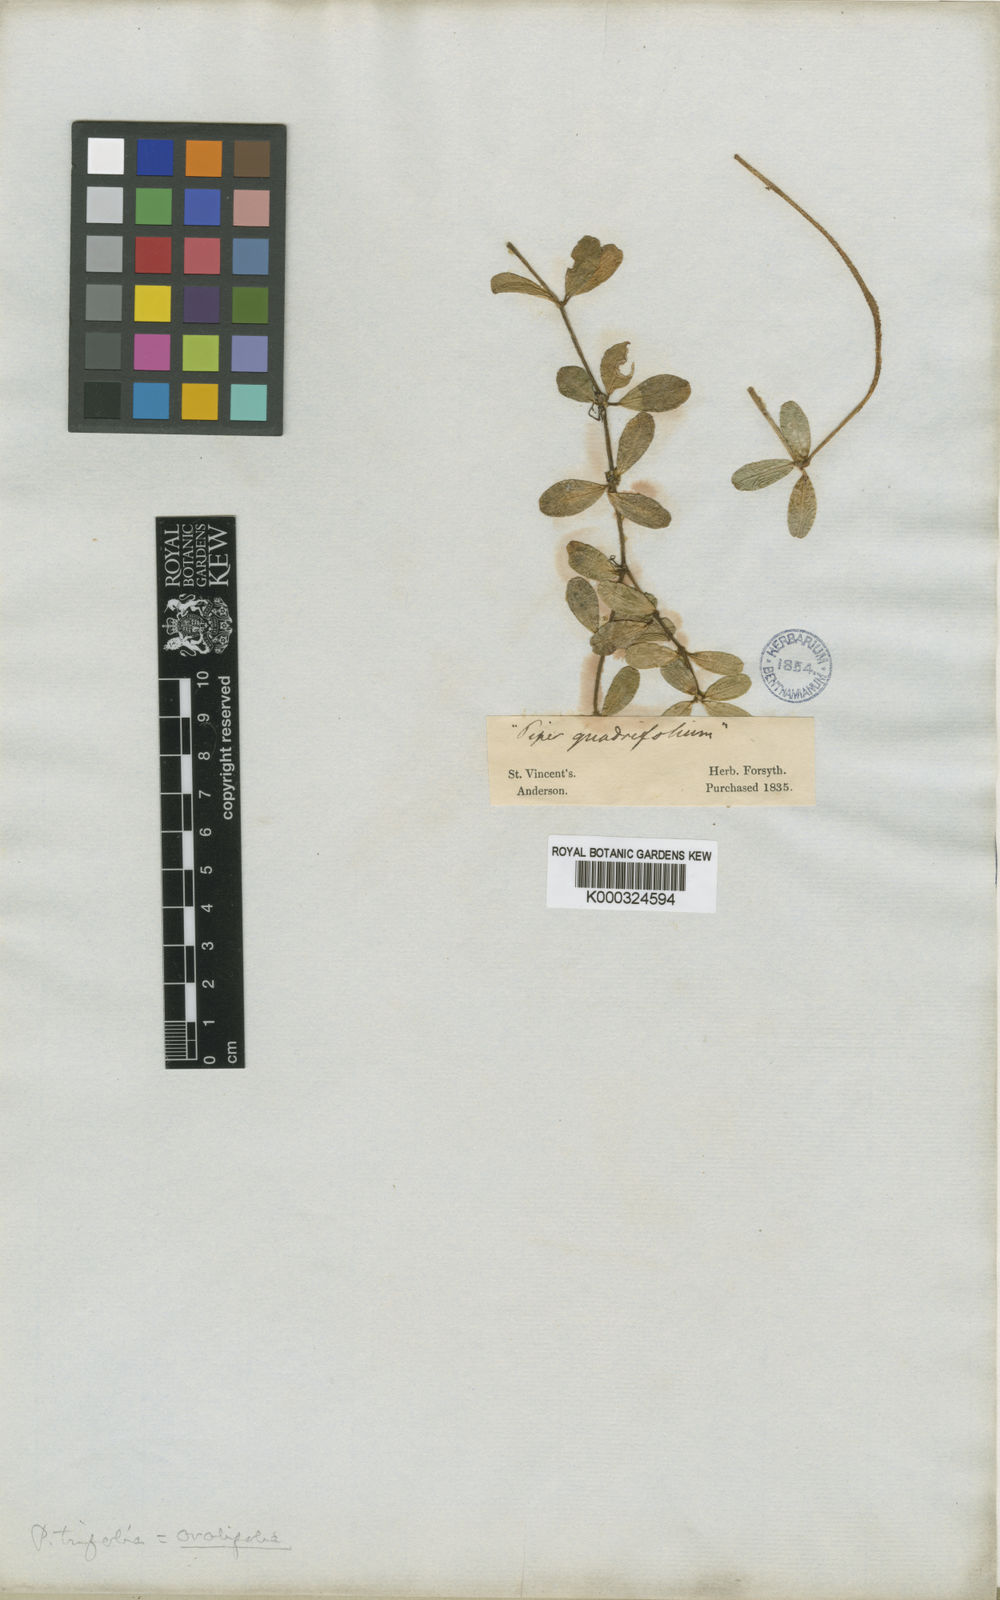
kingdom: Plantae
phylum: Tracheophyta
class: Magnoliopsida
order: Piperales
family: Piperaceae
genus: Peperomia
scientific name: Peperomia trifolia
